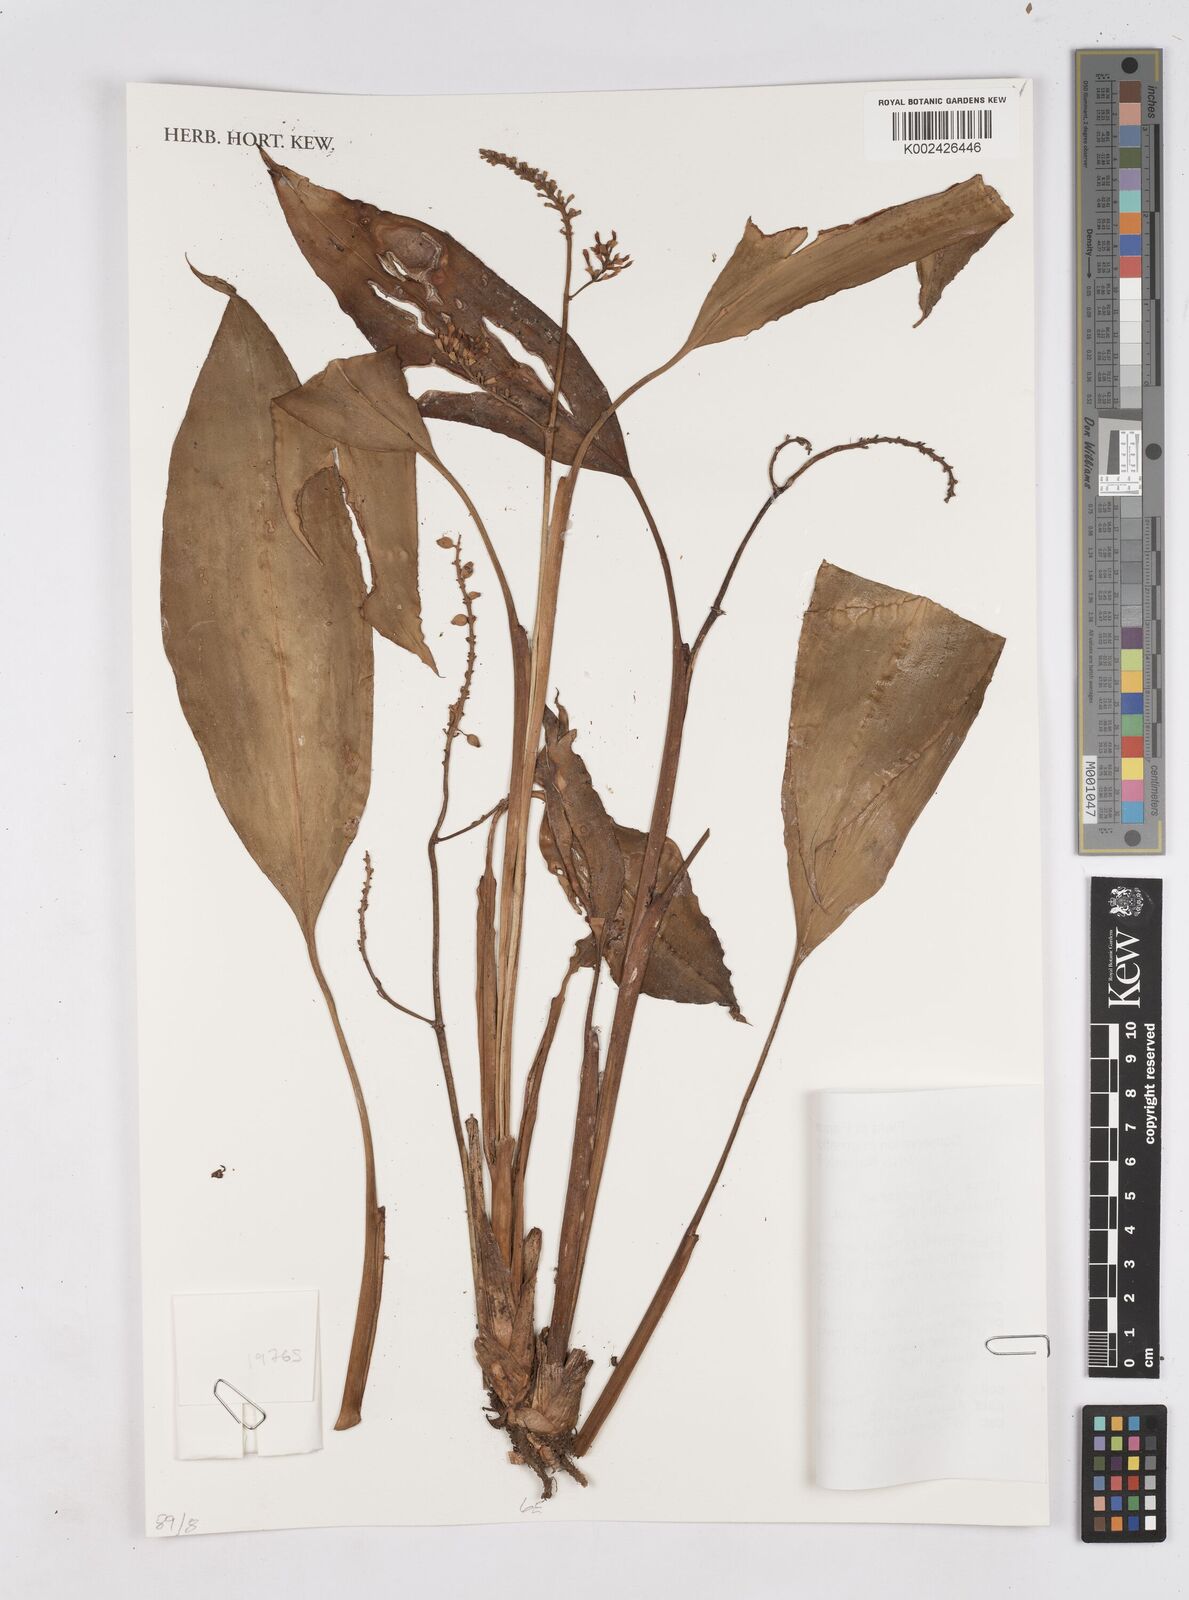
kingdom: Plantae
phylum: Tracheophyta
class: Liliopsida
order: Zingiberales
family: Zingiberaceae
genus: Riedelia
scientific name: Riedelia geluensis
